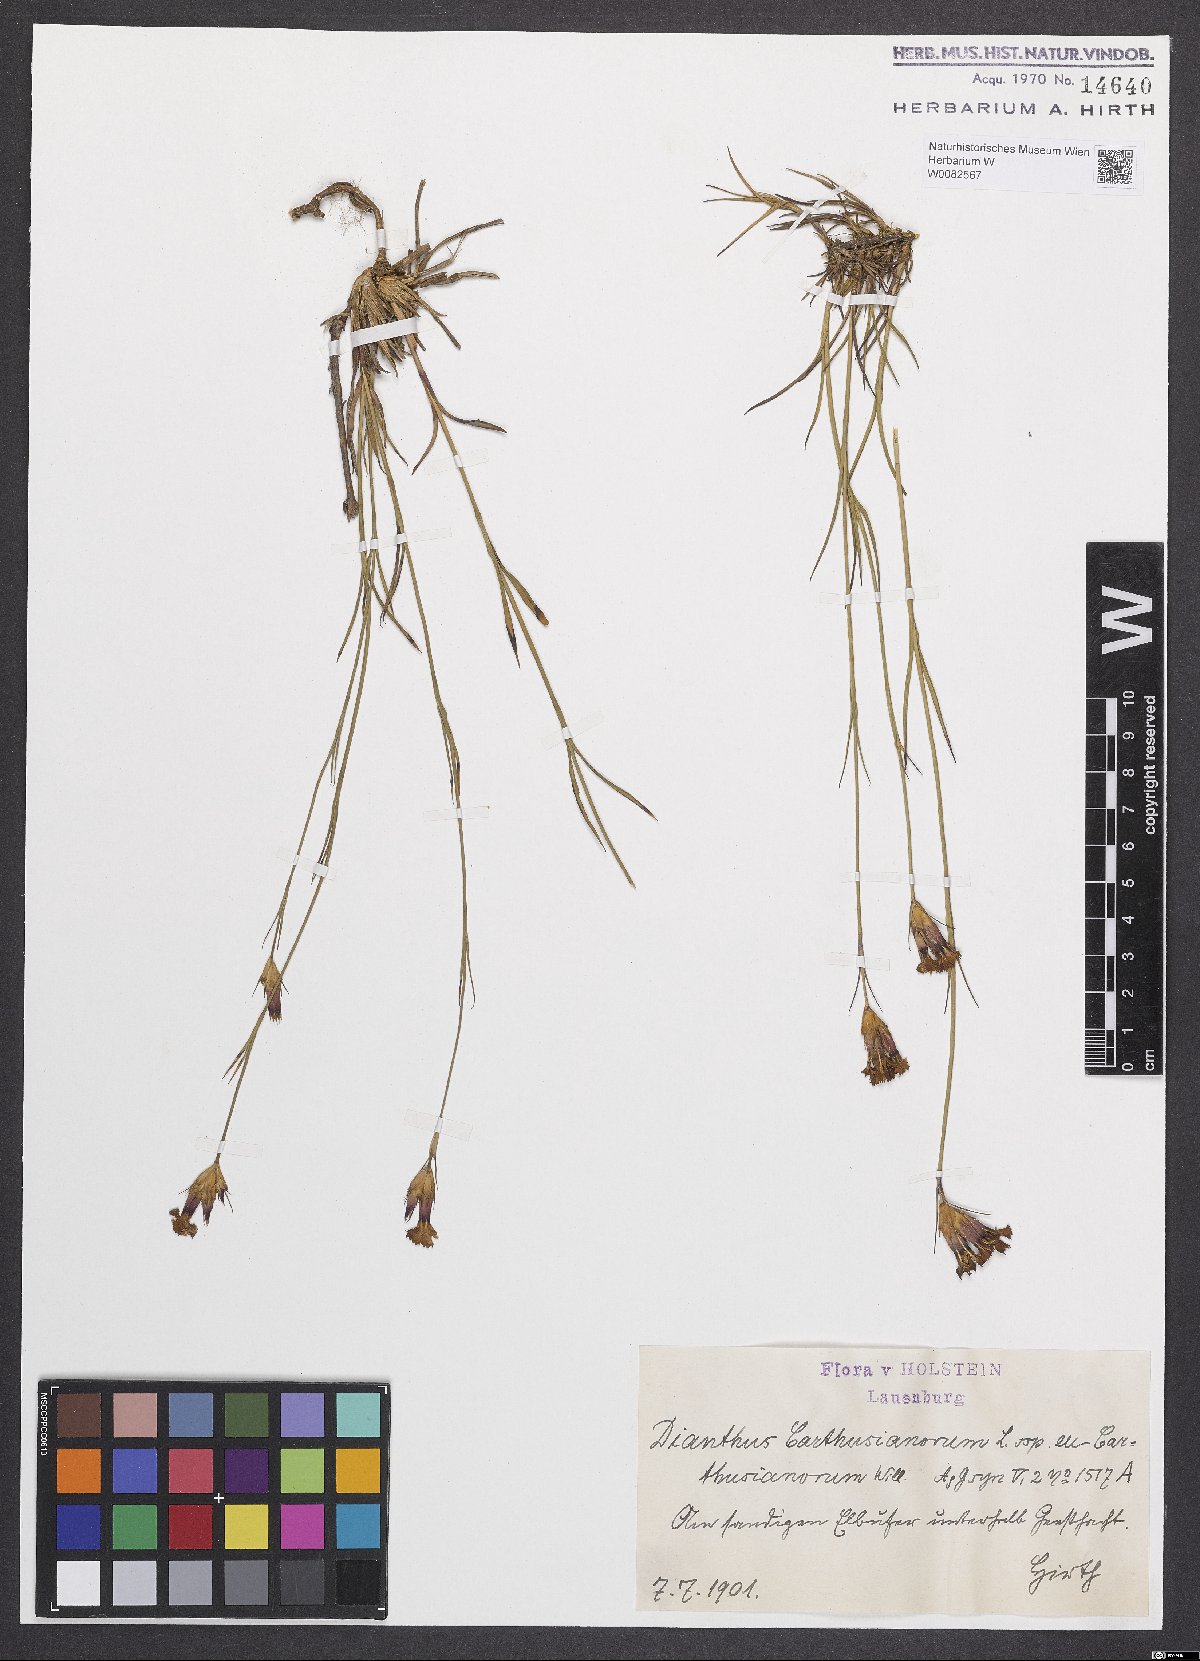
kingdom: Plantae
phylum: Tracheophyta
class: Magnoliopsida
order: Caryophyllales
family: Caryophyllaceae
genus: Dianthus
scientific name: Dianthus carthusianorum
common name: Carthusian pink
